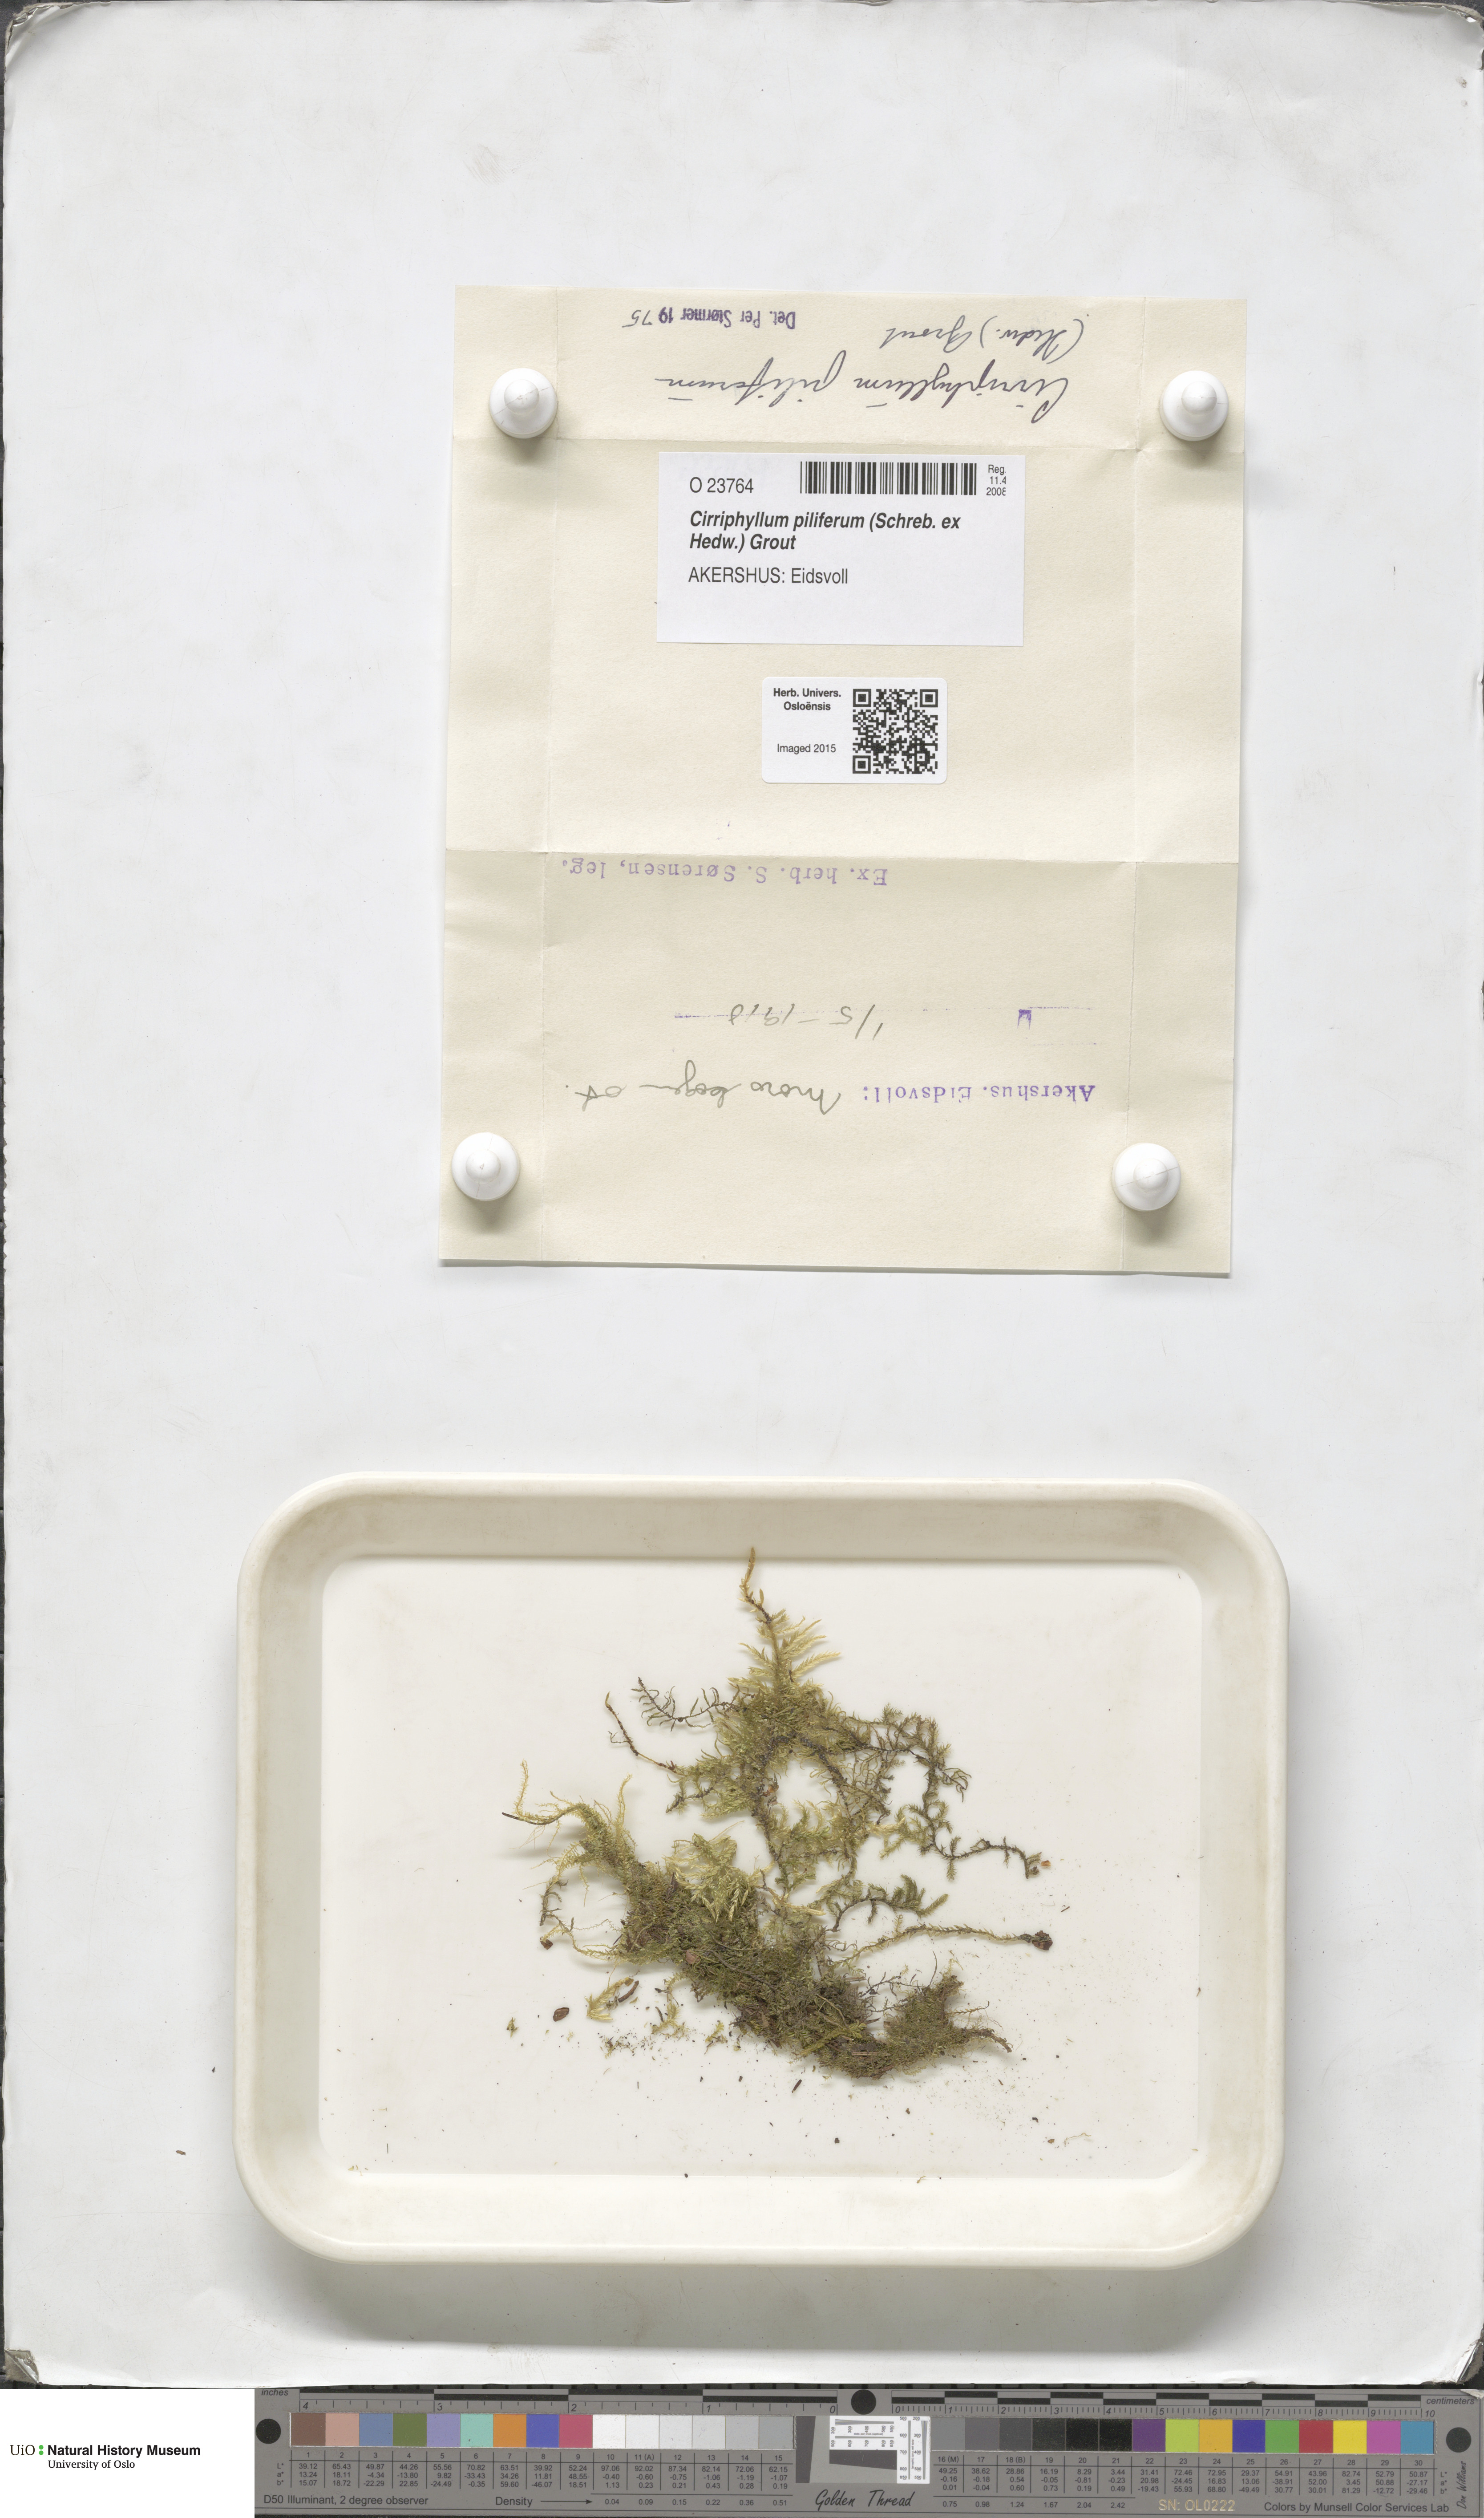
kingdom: Plantae
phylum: Bryophyta
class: Bryopsida
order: Hypnales
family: Brachytheciaceae
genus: Cirriphyllum
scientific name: Cirriphyllum piliferum
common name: Hair-pointed moss
